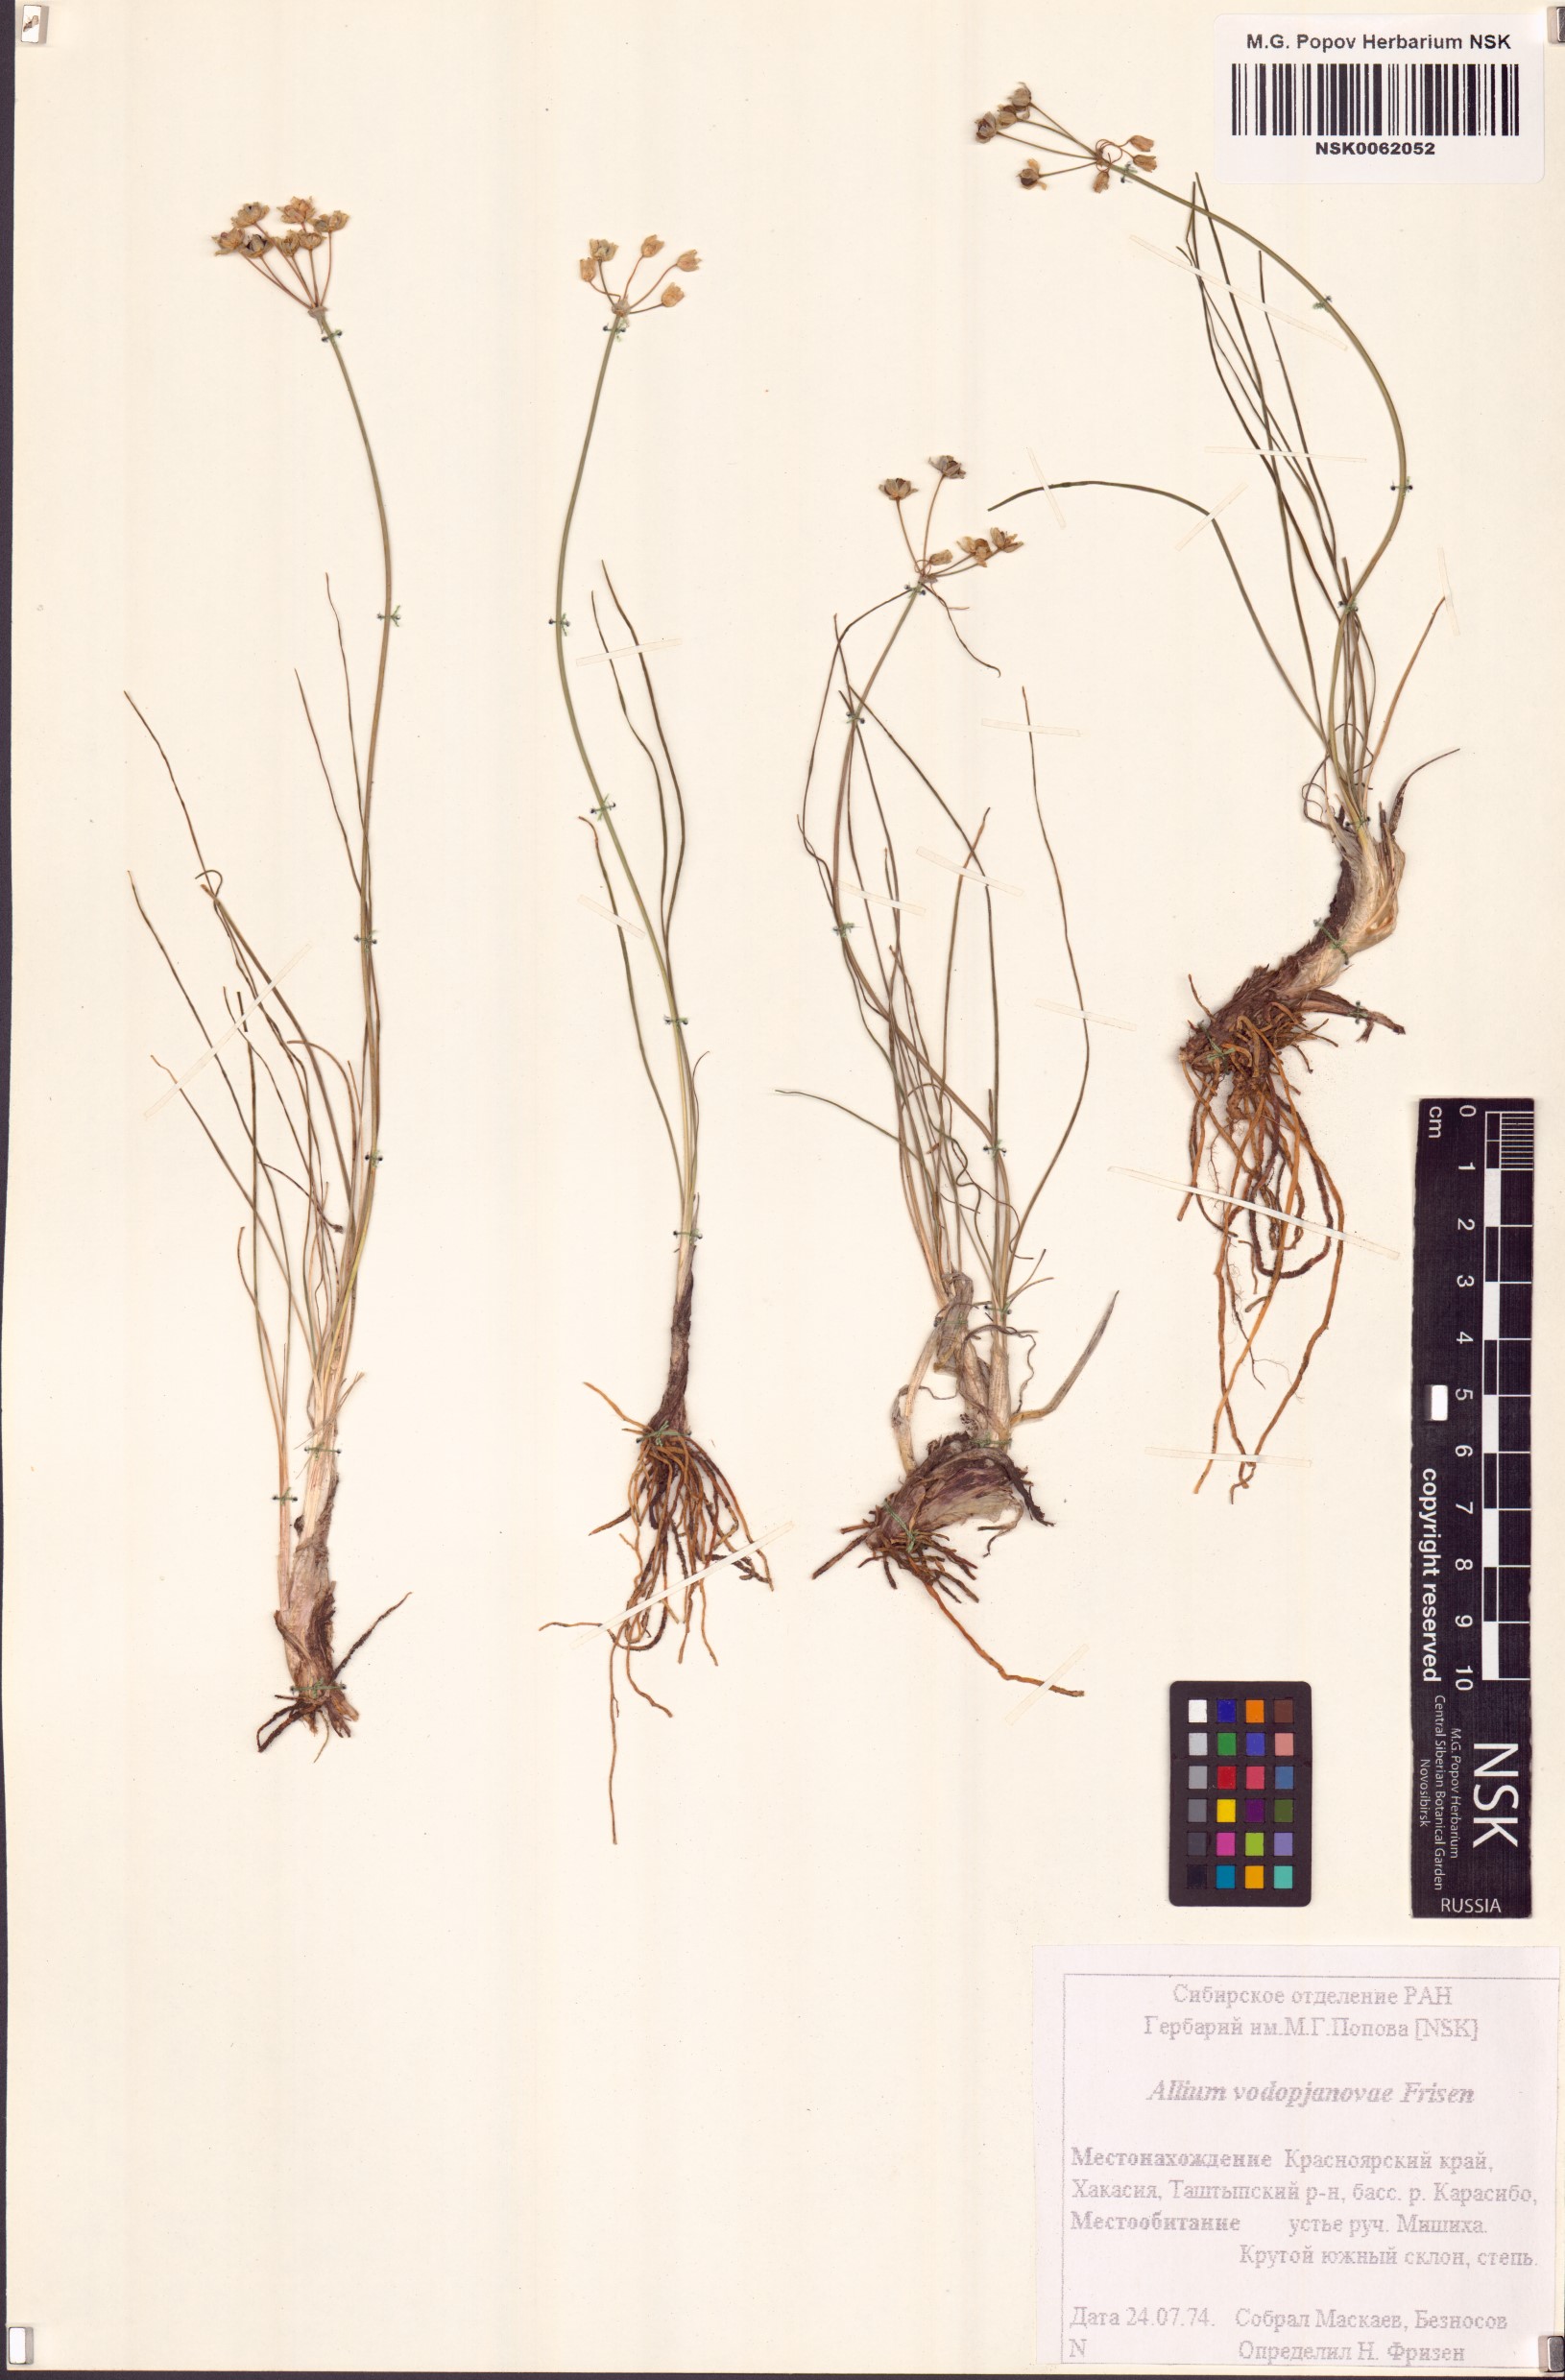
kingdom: Plantae
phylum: Tracheophyta
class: Liliopsida
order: Asparagales
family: Amaryllidaceae
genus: Allium
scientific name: Allium vodopjanovae
